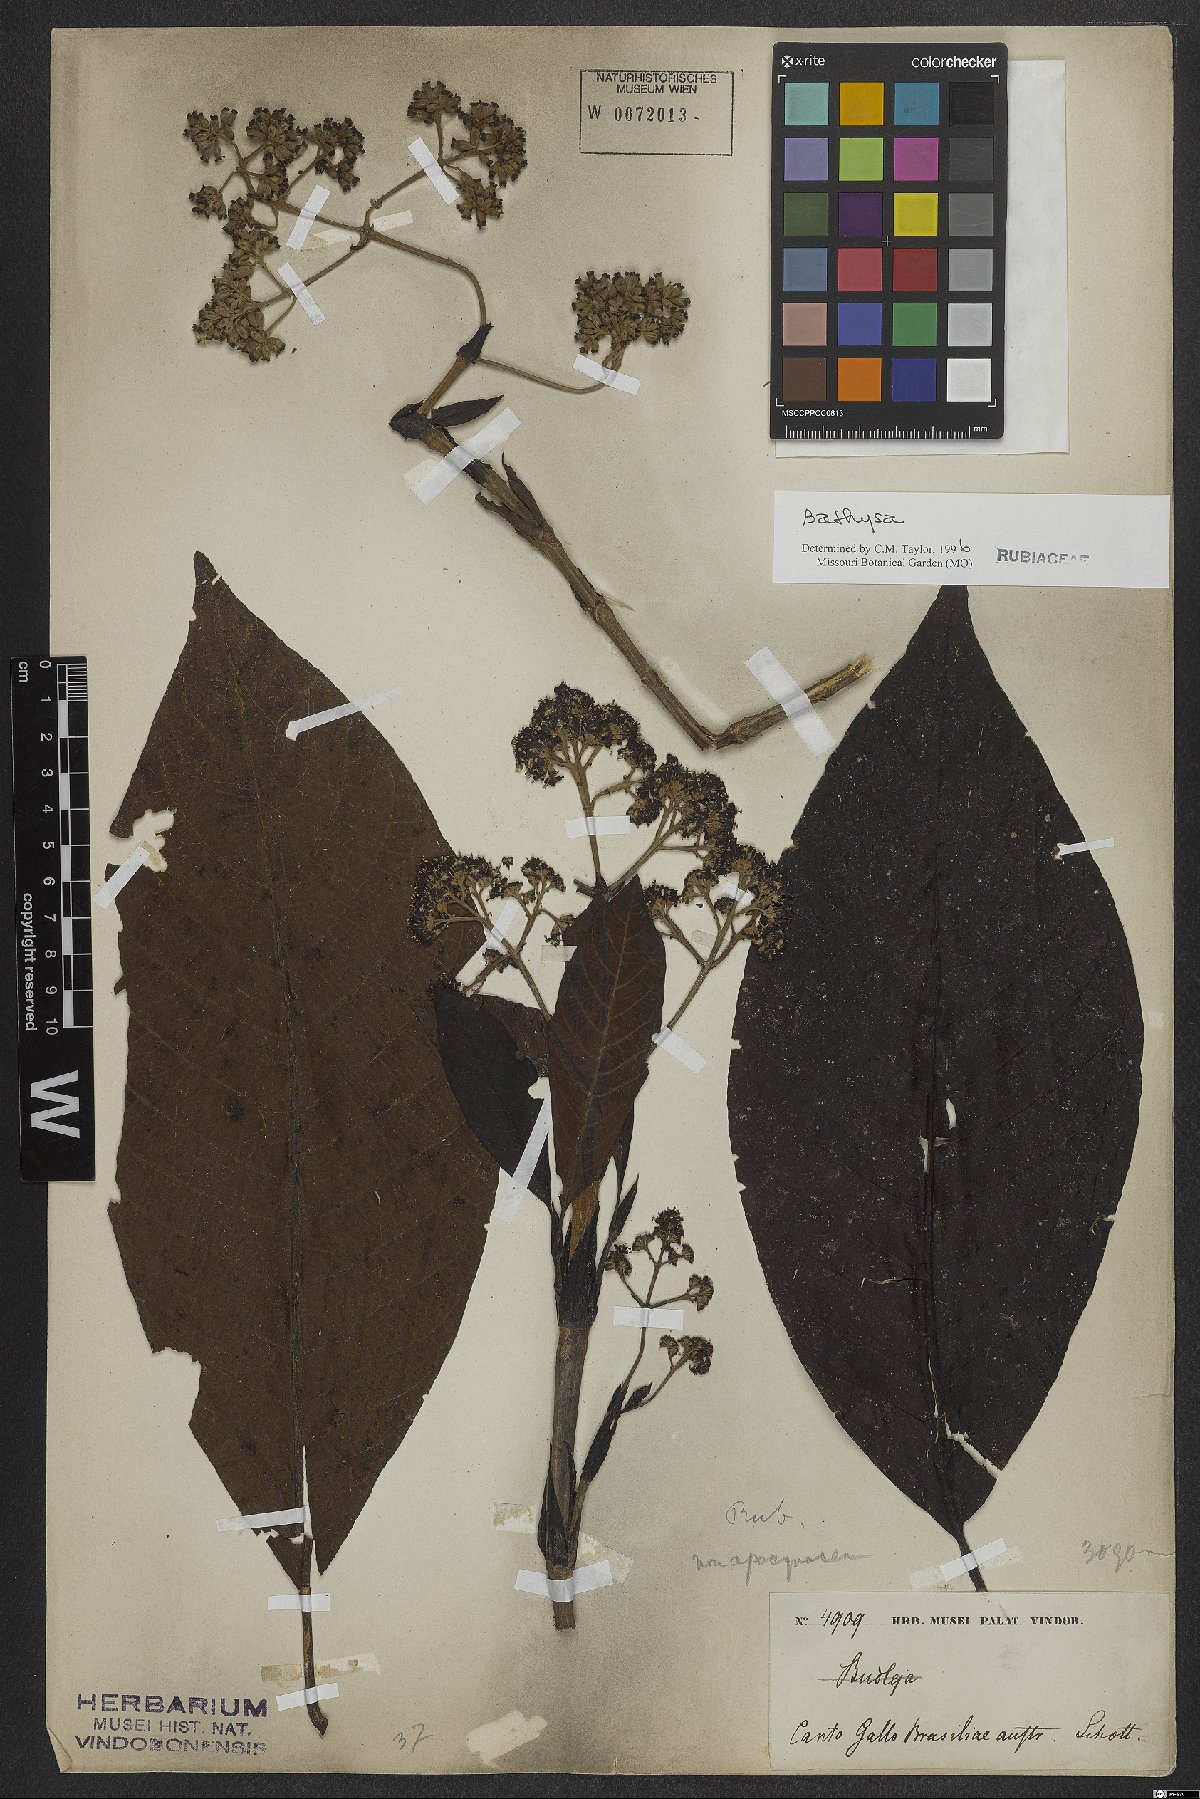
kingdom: Plantae
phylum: Tracheophyta
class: Magnoliopsida
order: Gentianales
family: Rubiaceae
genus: Bathysa
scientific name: Bathysa
